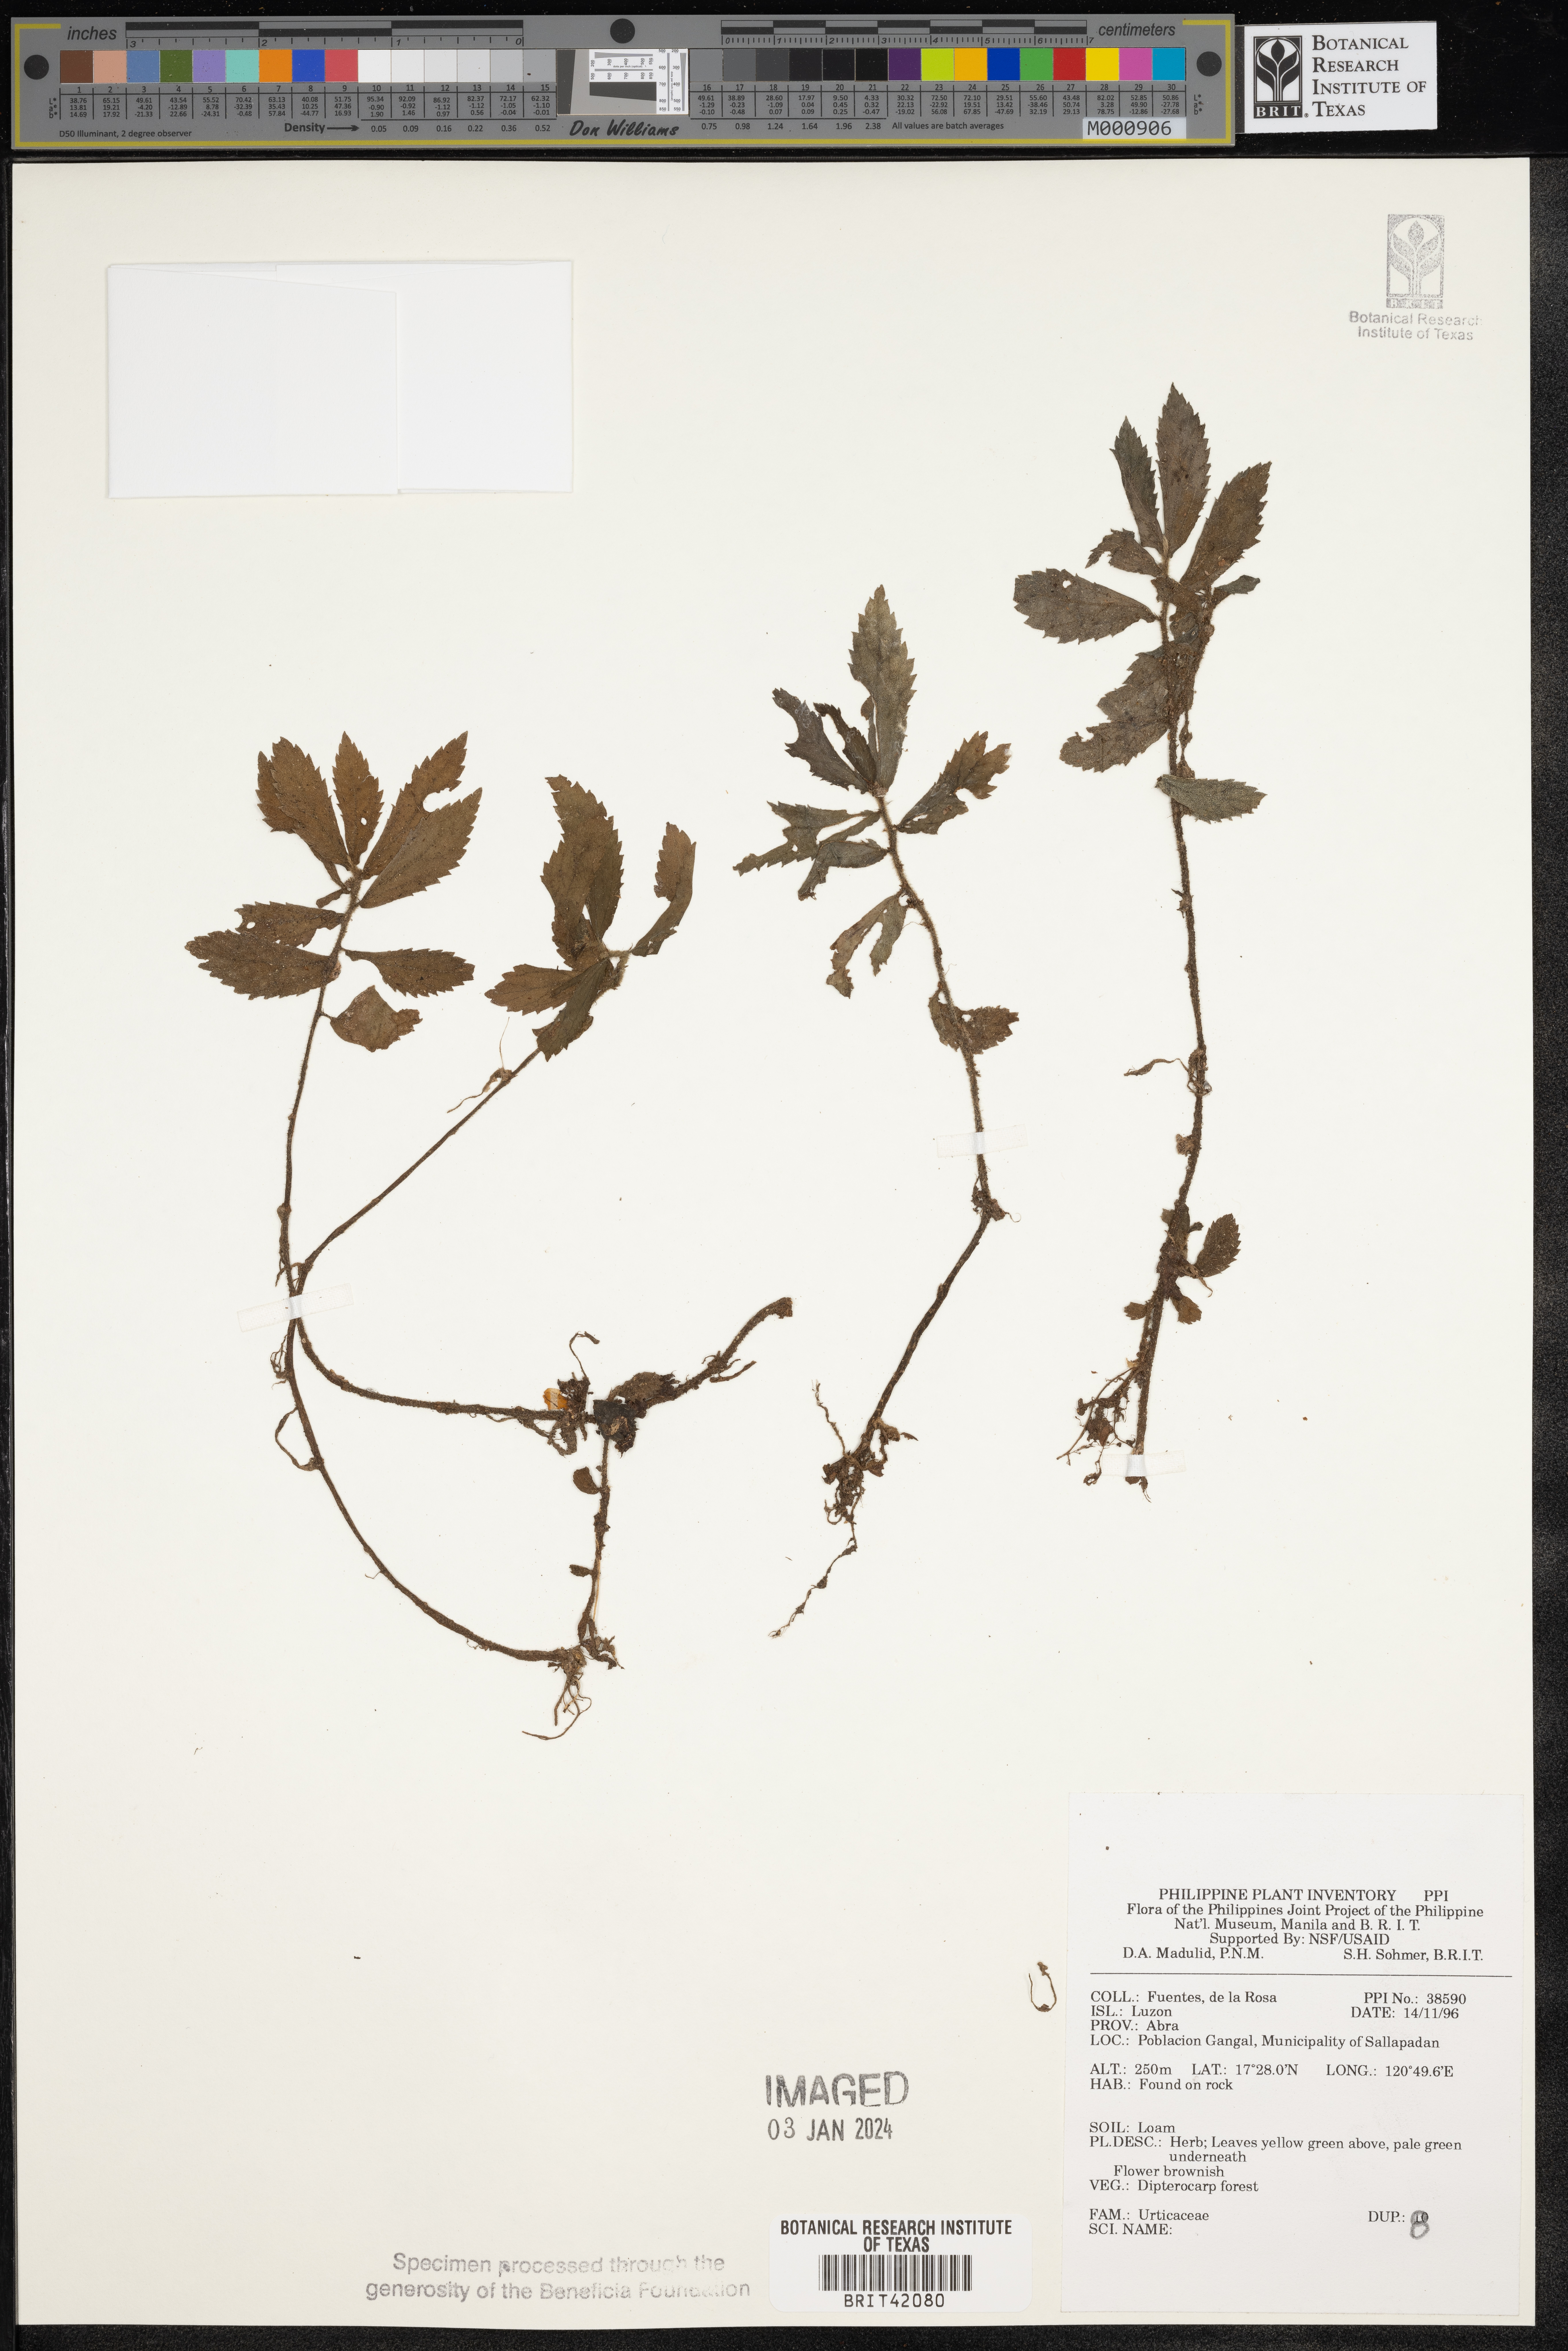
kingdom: Plantae
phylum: Tracheophyta
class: Magnoliopsida
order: Rosales
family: Urticaceae
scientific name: Urticaceae
